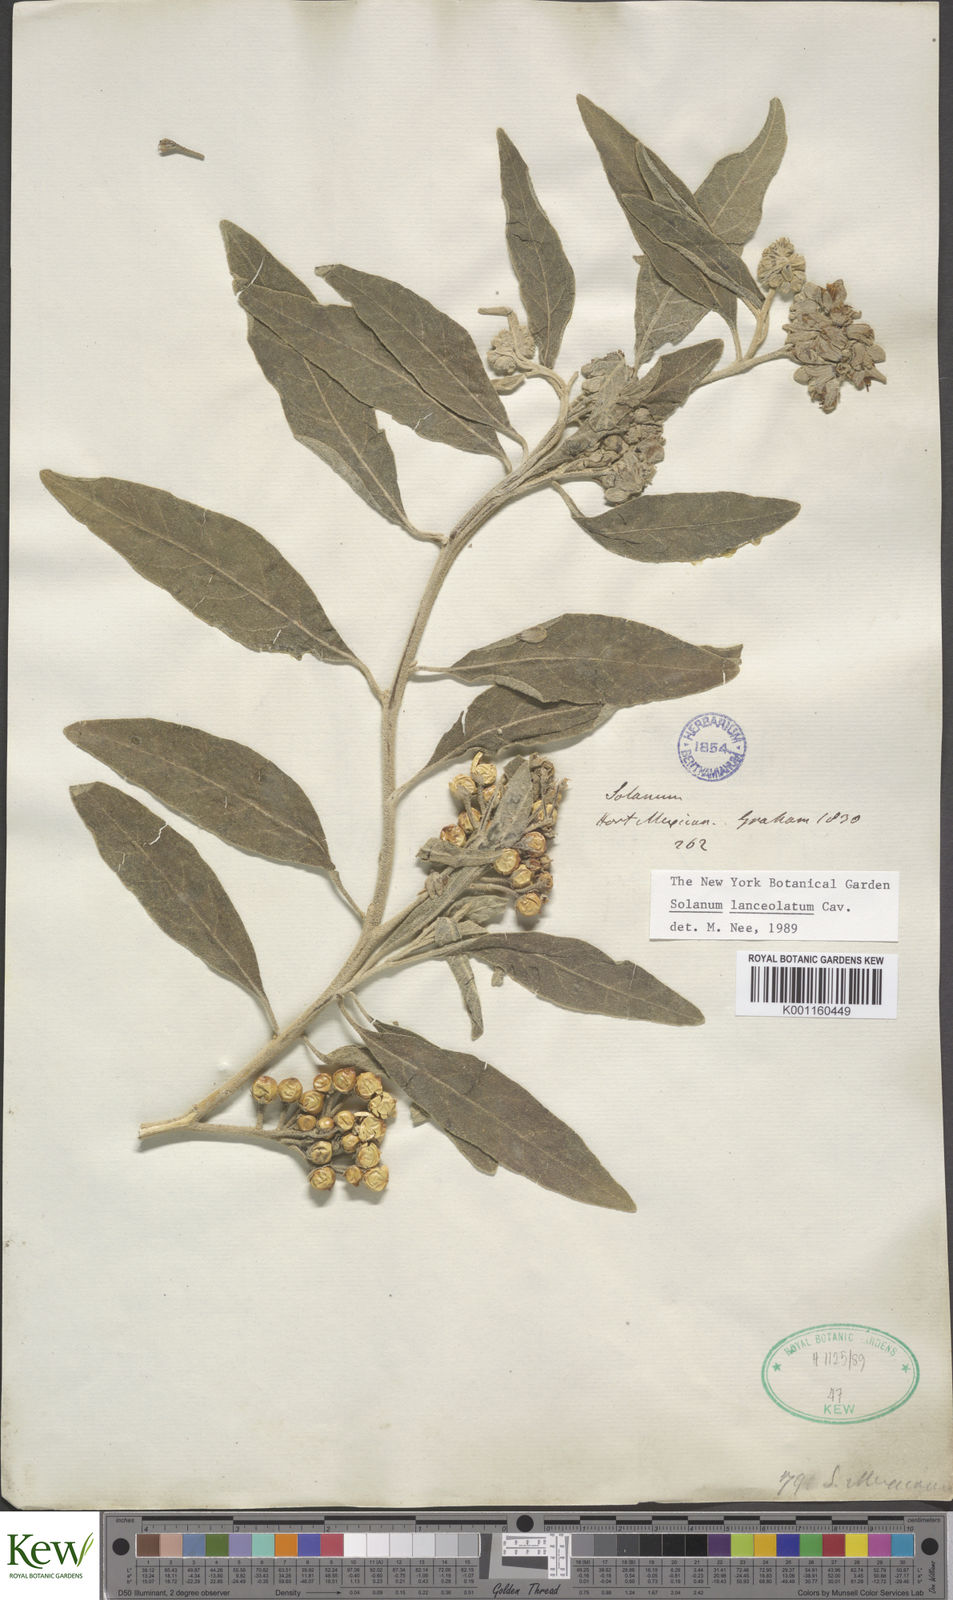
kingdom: Plantae
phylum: Tracheophyta
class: Magnoliopsida
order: Solanales
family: Solanaceae
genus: Solanum
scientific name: Solanum lanceolatum
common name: Orangeberry nightshade
